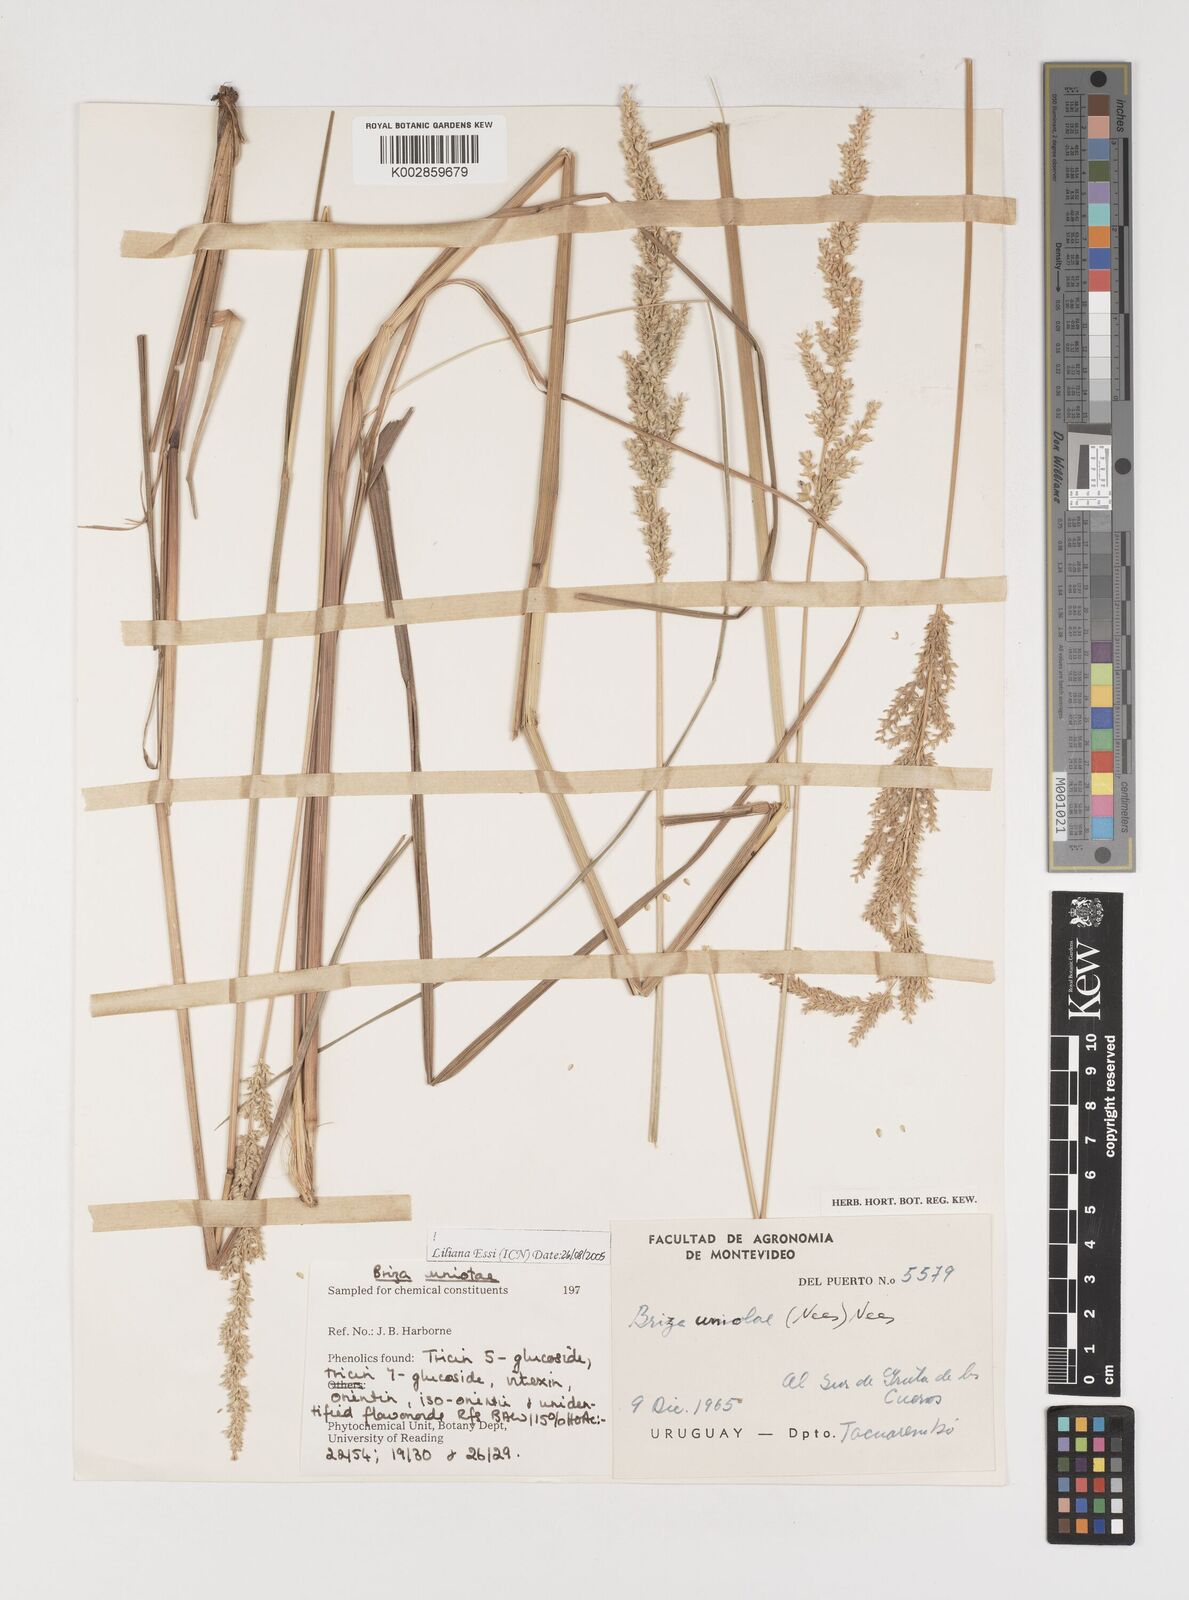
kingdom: Plantae
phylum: Tracheophyta
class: Liliopsida
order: Poales
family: Poaceae
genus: Poidium
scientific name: Poidium uniolae
